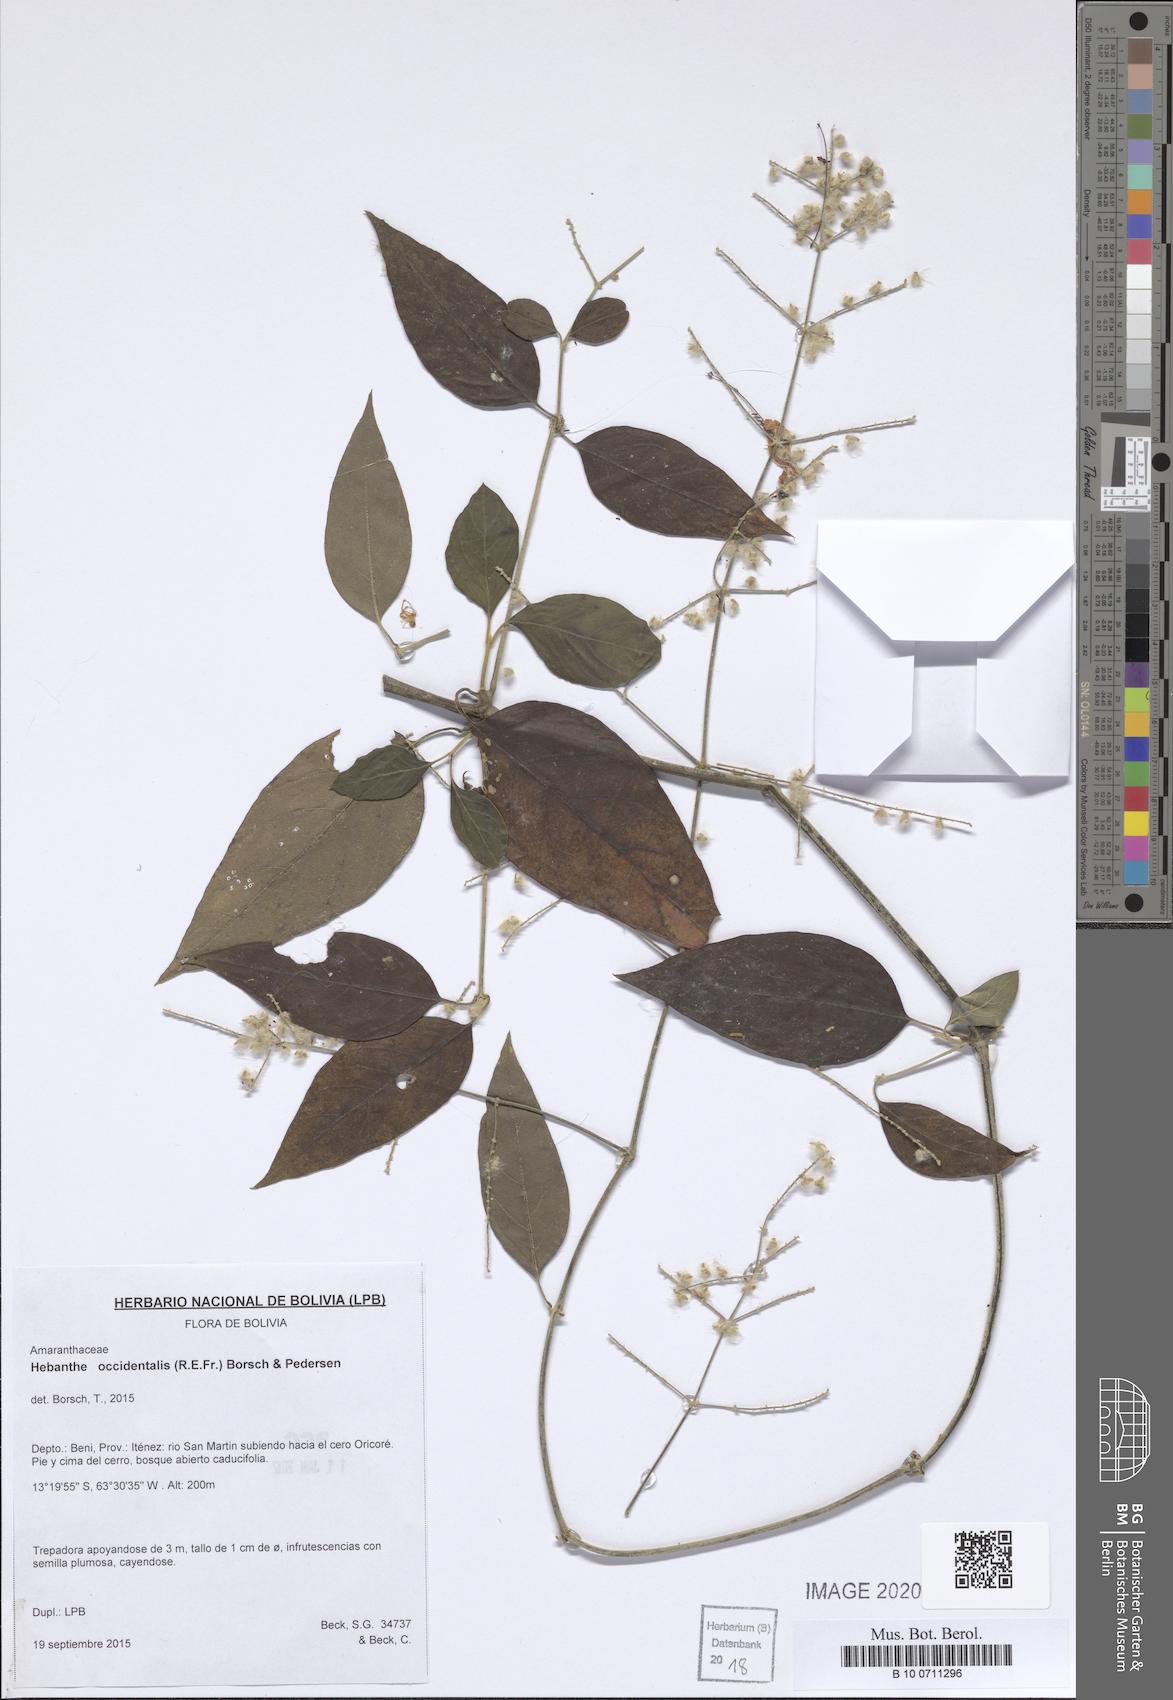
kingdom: Plantae
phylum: Tracheophyta
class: Magnoliopsida
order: Caryophyllales
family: Amaranthaceae
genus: Hebanthe
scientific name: Hebanthe occidentalis
